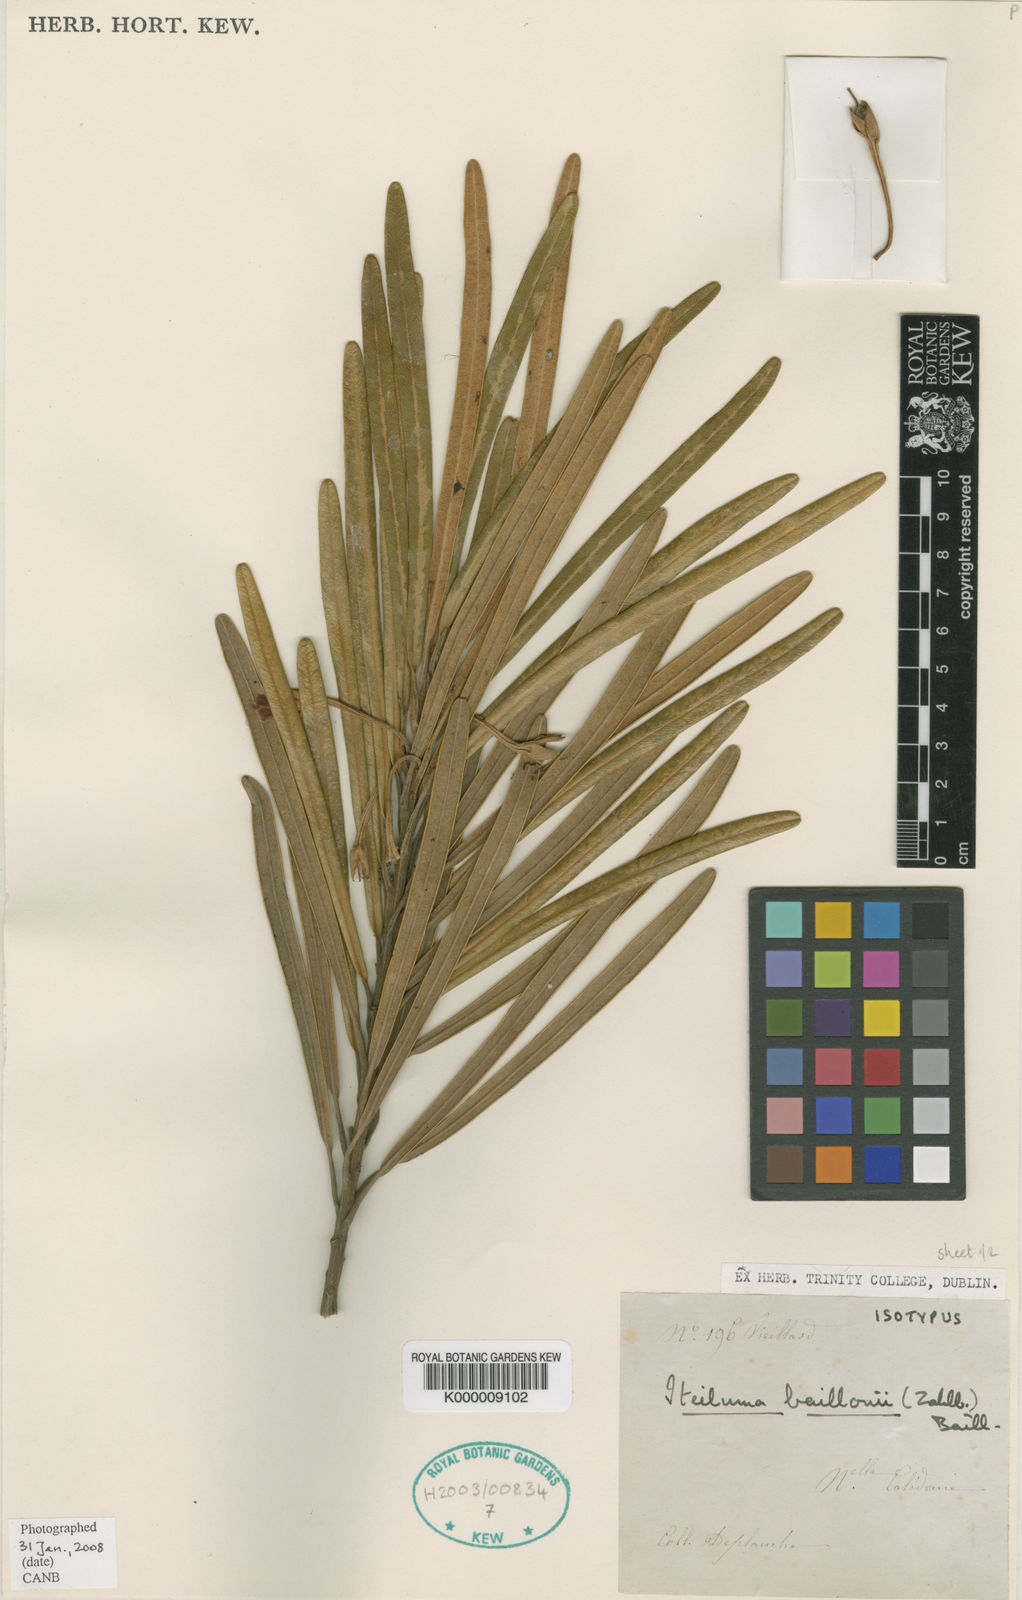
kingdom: Plantae
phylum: Tracheophyta
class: Magnoliopsida
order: Ericales
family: Sapotaceae
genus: Planchonella
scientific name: Planchonella baillonii
